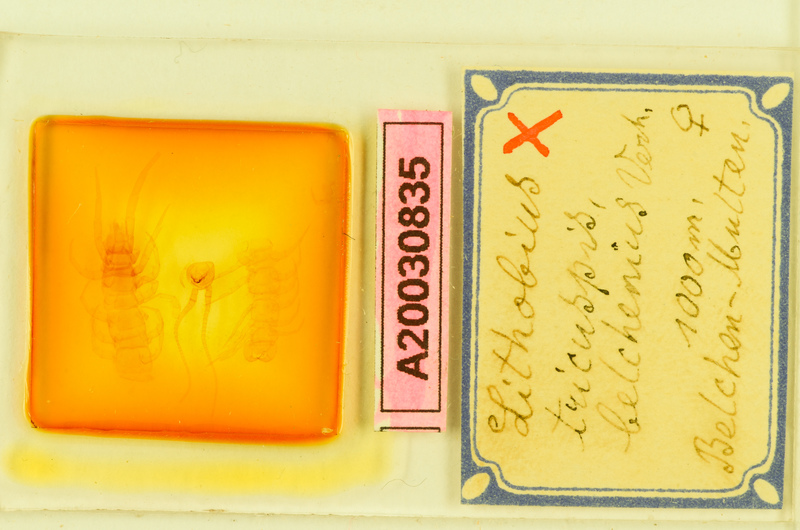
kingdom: Animalia
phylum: Arthropoda
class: Chilopoda
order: Lithobiomorpha
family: Lithobiidae
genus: Lithobius
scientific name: Lithobius tricuspis
